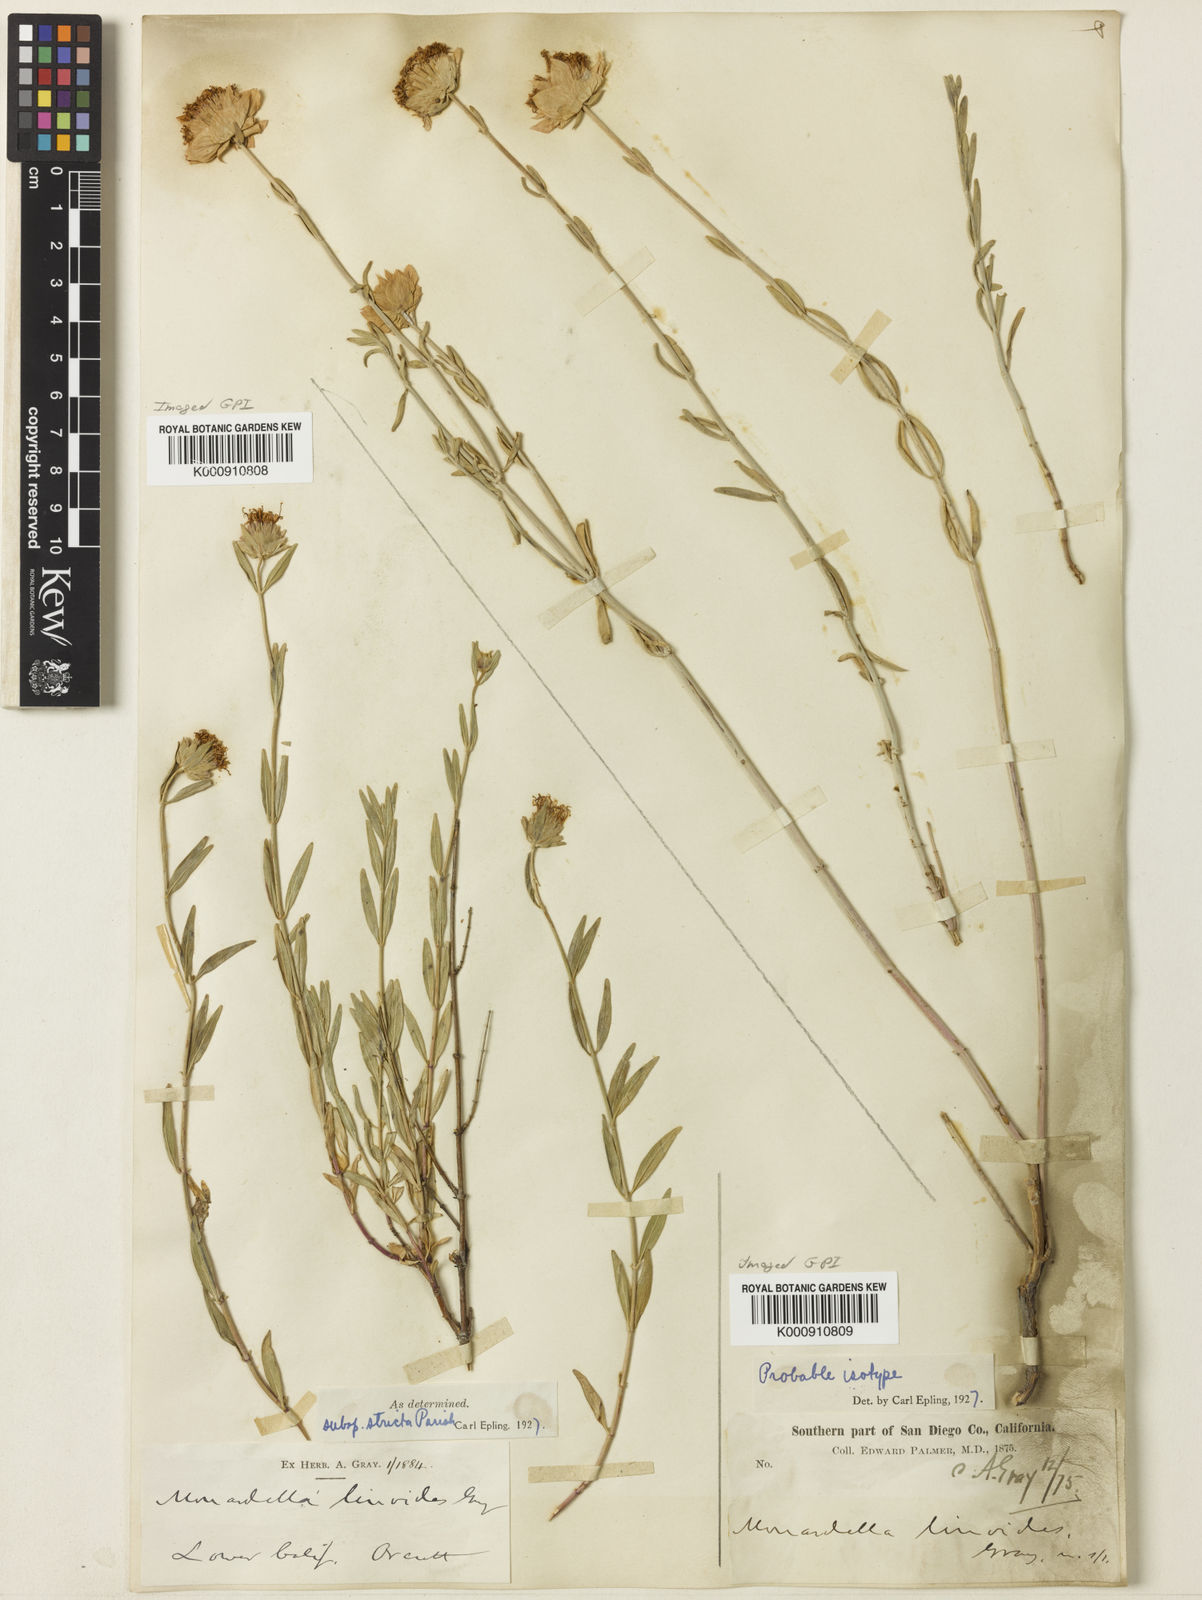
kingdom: Plantae
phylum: Tracheophyta
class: Magnoliopsida
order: Lamiales
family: Lamiaceae
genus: Monardella
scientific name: Monardella linoides
